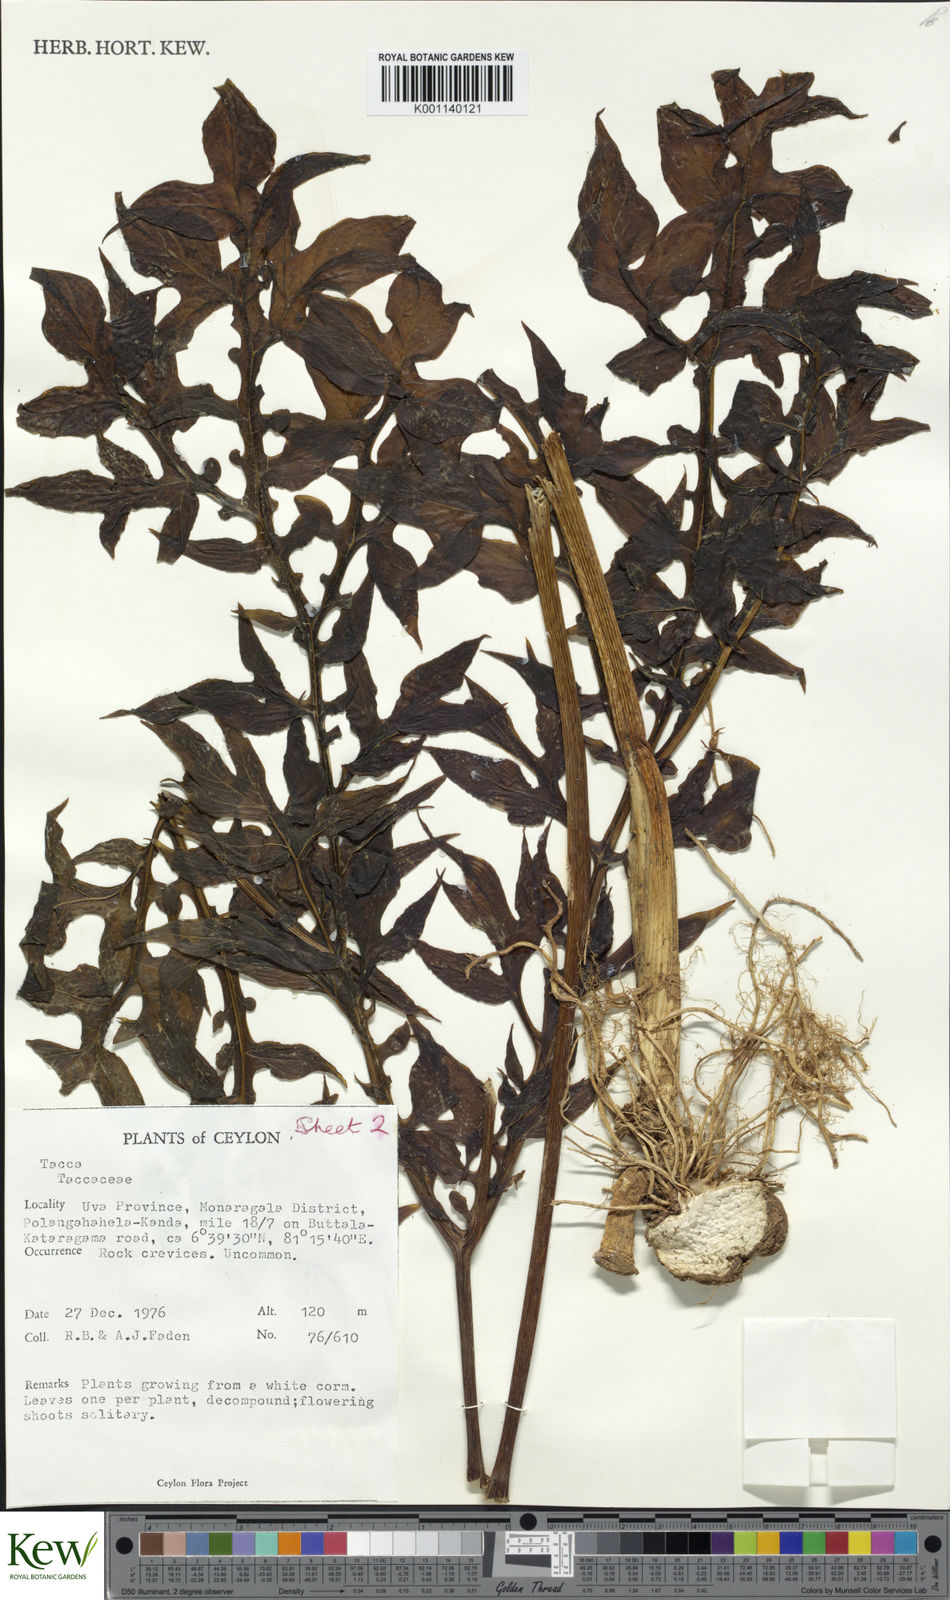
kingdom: Plantae
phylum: Tracheophyta
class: Liliopsida
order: Dioscoreales
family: Dioscoreaceae
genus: Tacca
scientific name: Tacca
